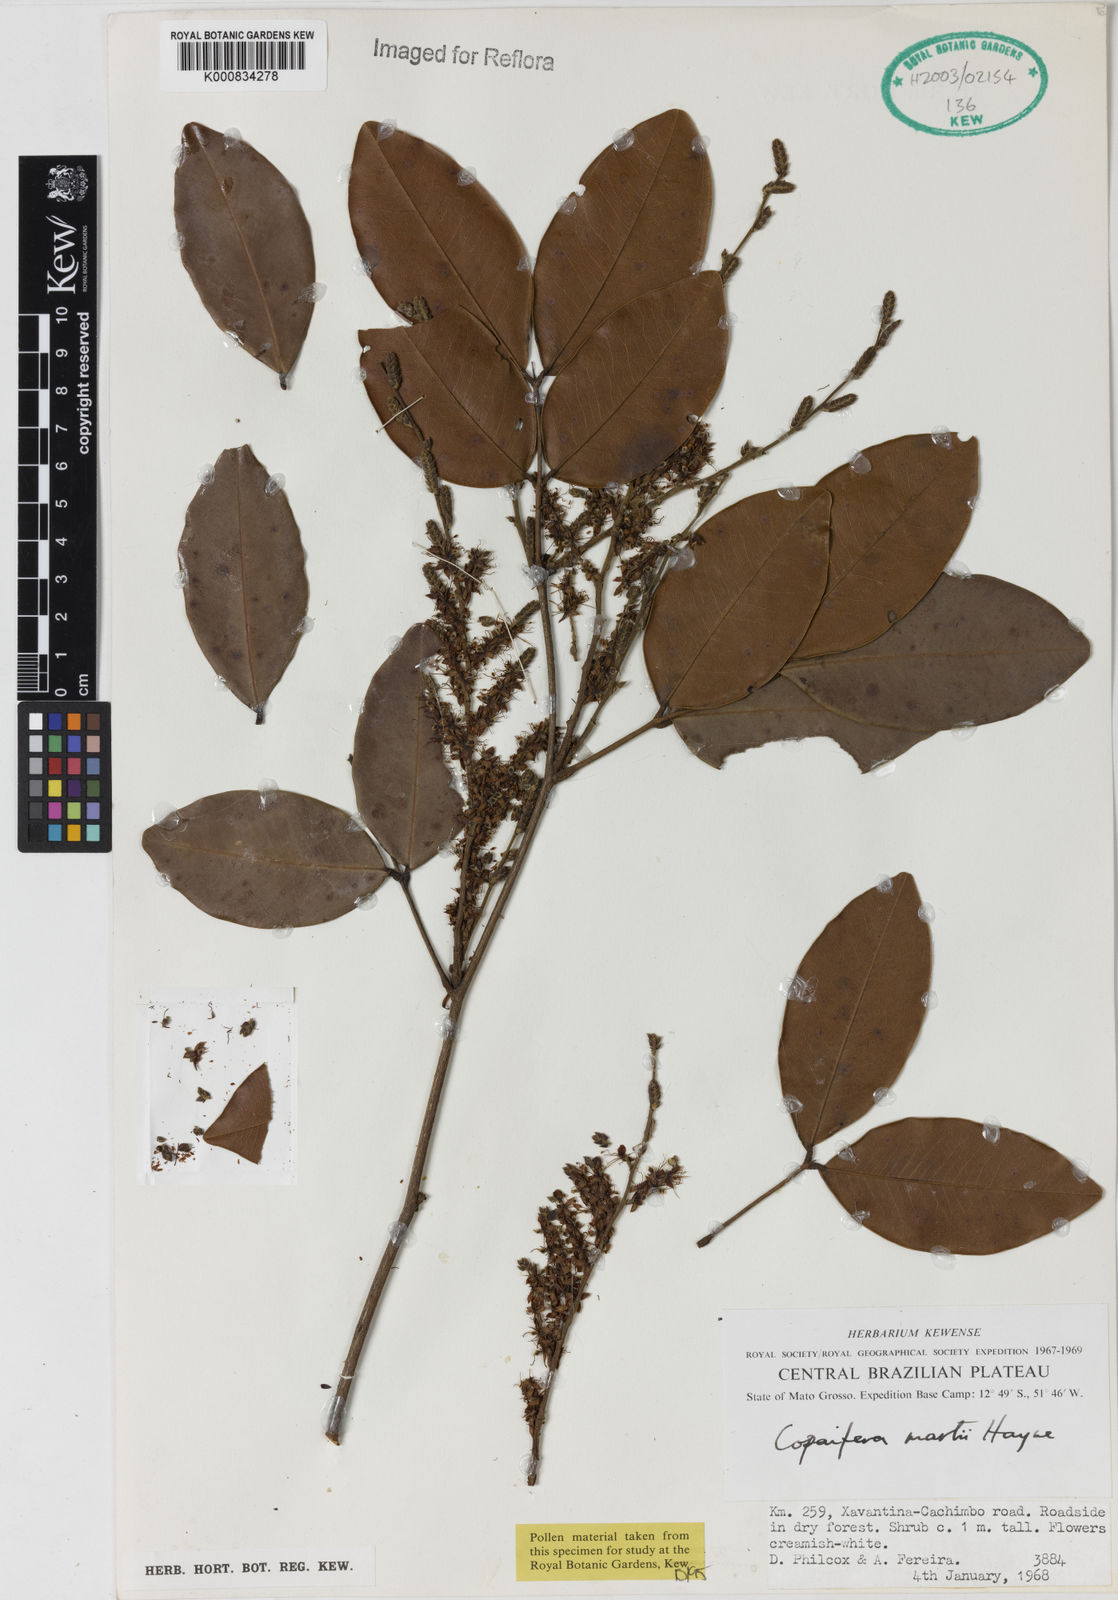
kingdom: Plantae
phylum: Tracheophyta
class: Magnoliopsida
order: Fabales
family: Fabaceae
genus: Copaifera
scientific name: Copaifera martii
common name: Copaiba
